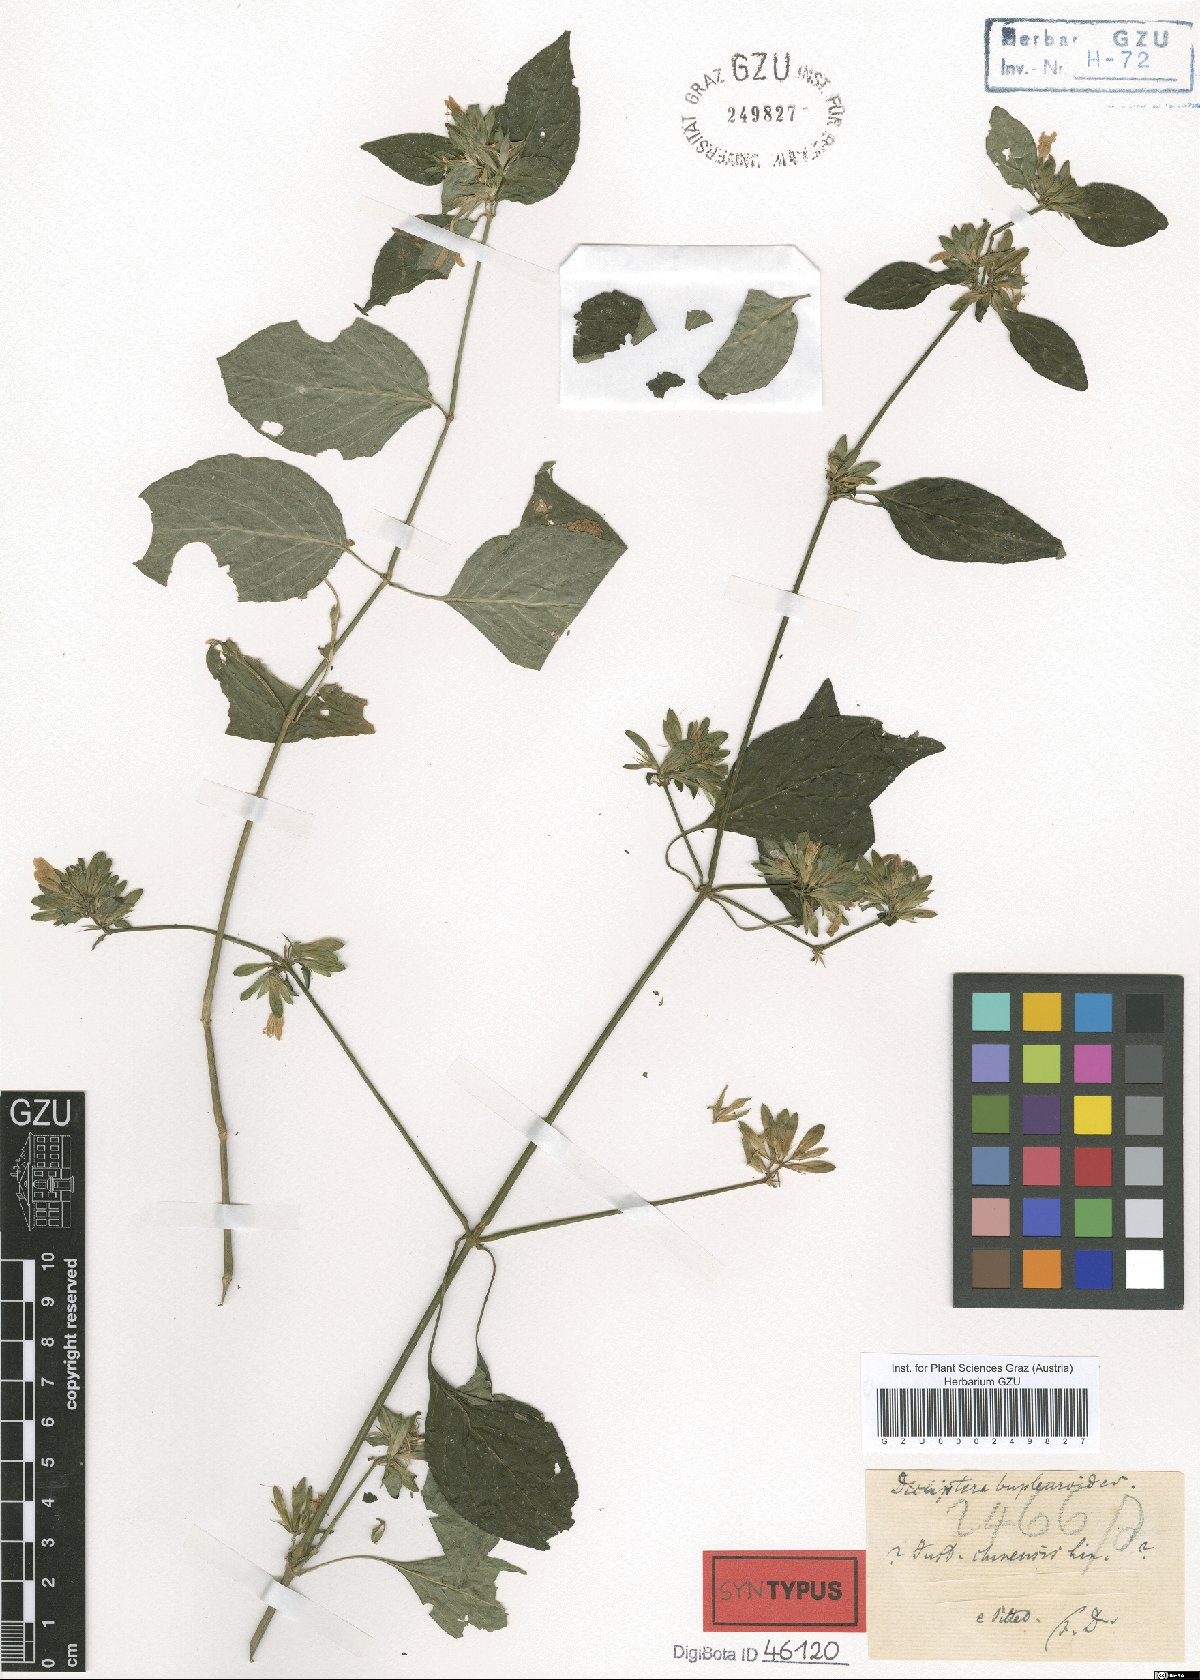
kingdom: Plantae
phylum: Tracheophyta
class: Magnoliopsida
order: Lamiales
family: Acanthaceae
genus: Dicliptera
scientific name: Dicliptera bupleuroides
